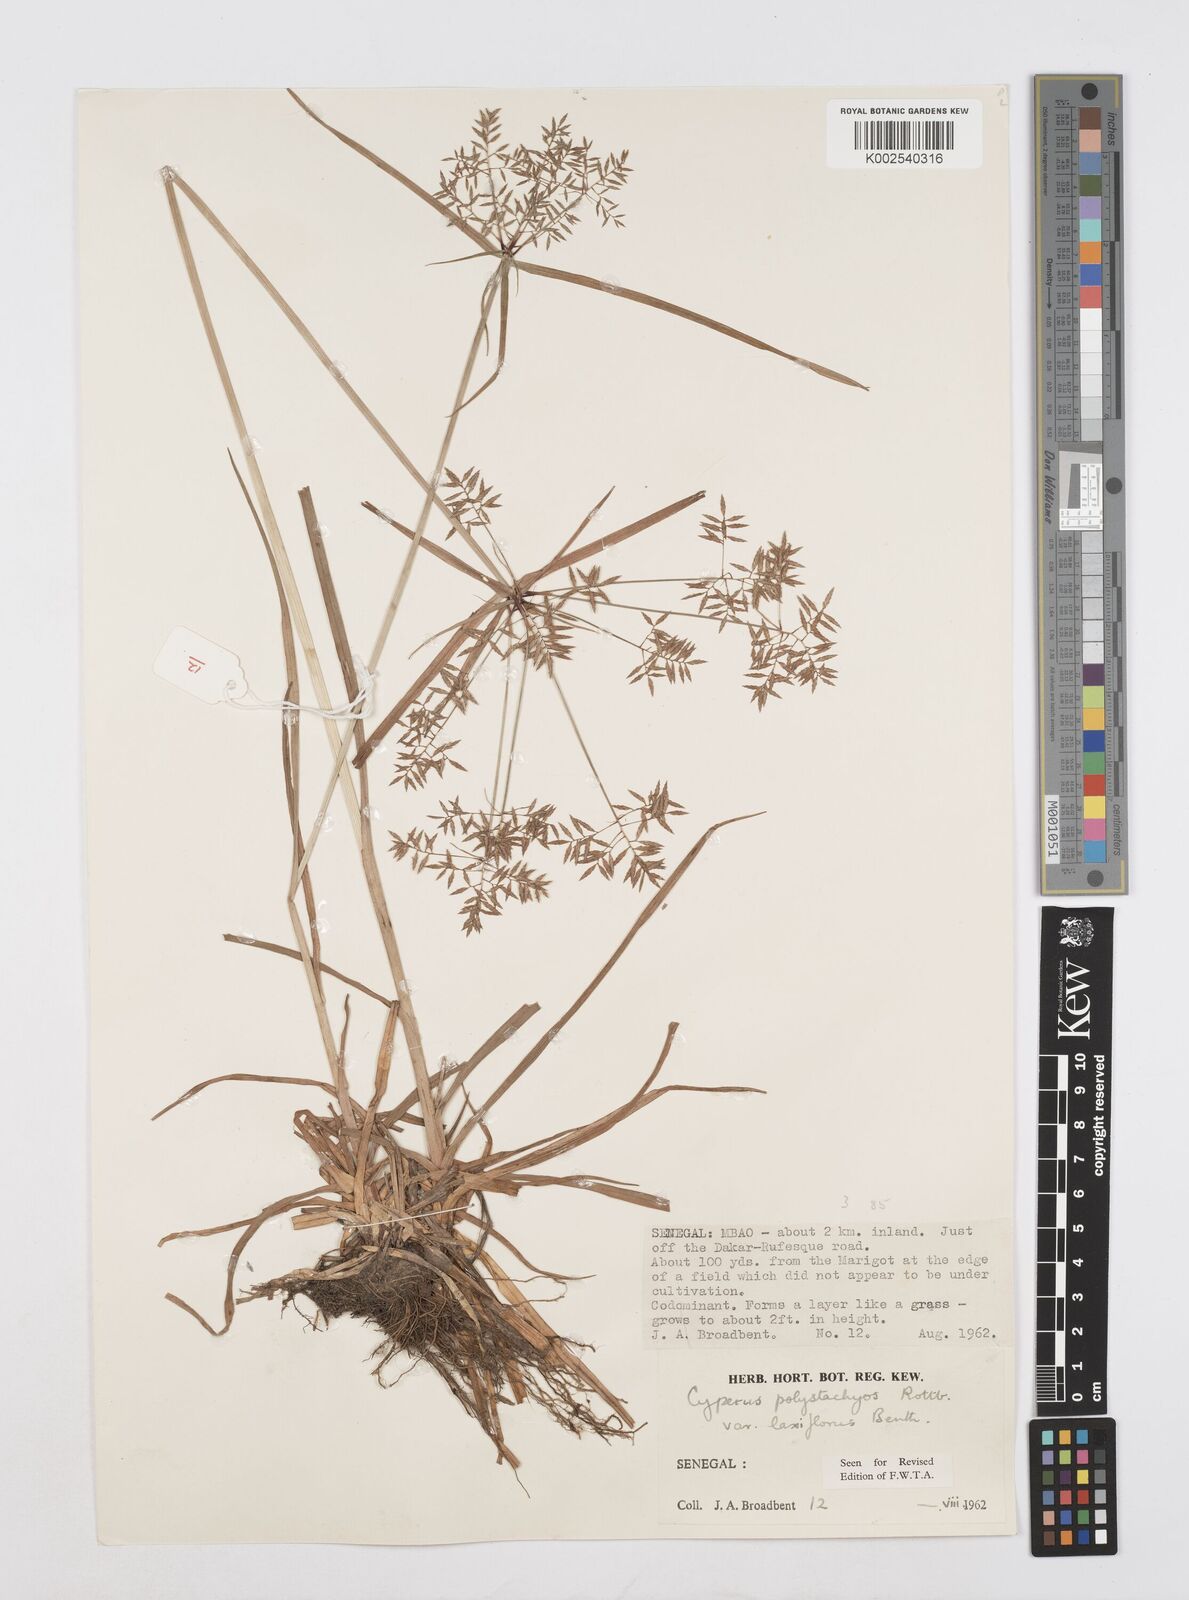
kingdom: Plantae
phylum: Tracheophyta
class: Liliopsida
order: Poales
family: Cyperaceae
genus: Cyperus
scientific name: Cyperus polystachyos
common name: Bunchy flat sedge
